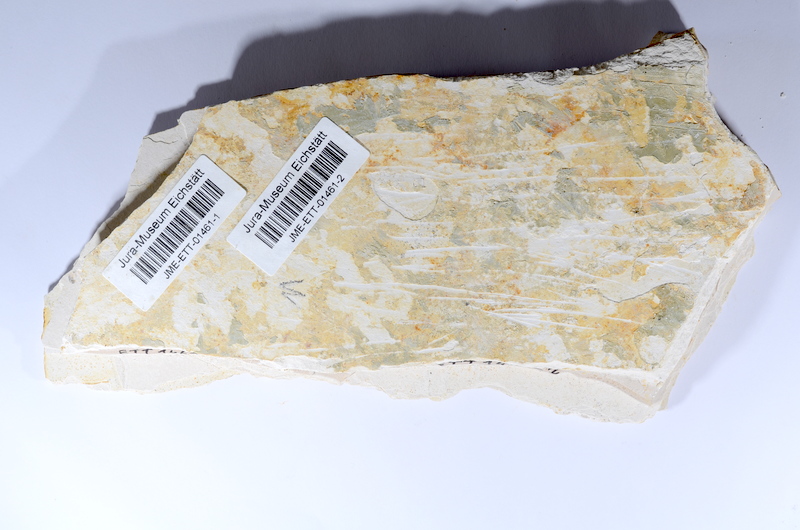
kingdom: Animalia
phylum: Chordata
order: Salmoniformes
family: Orthogonikleithridae
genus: Orthogonikleithrus
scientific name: Orthogonikleithrus hoelli
